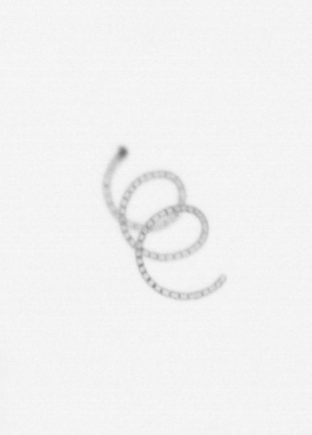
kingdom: Chromista
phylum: Ochrophyta
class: Bacillariophyceae
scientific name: Bacillariophyceae
